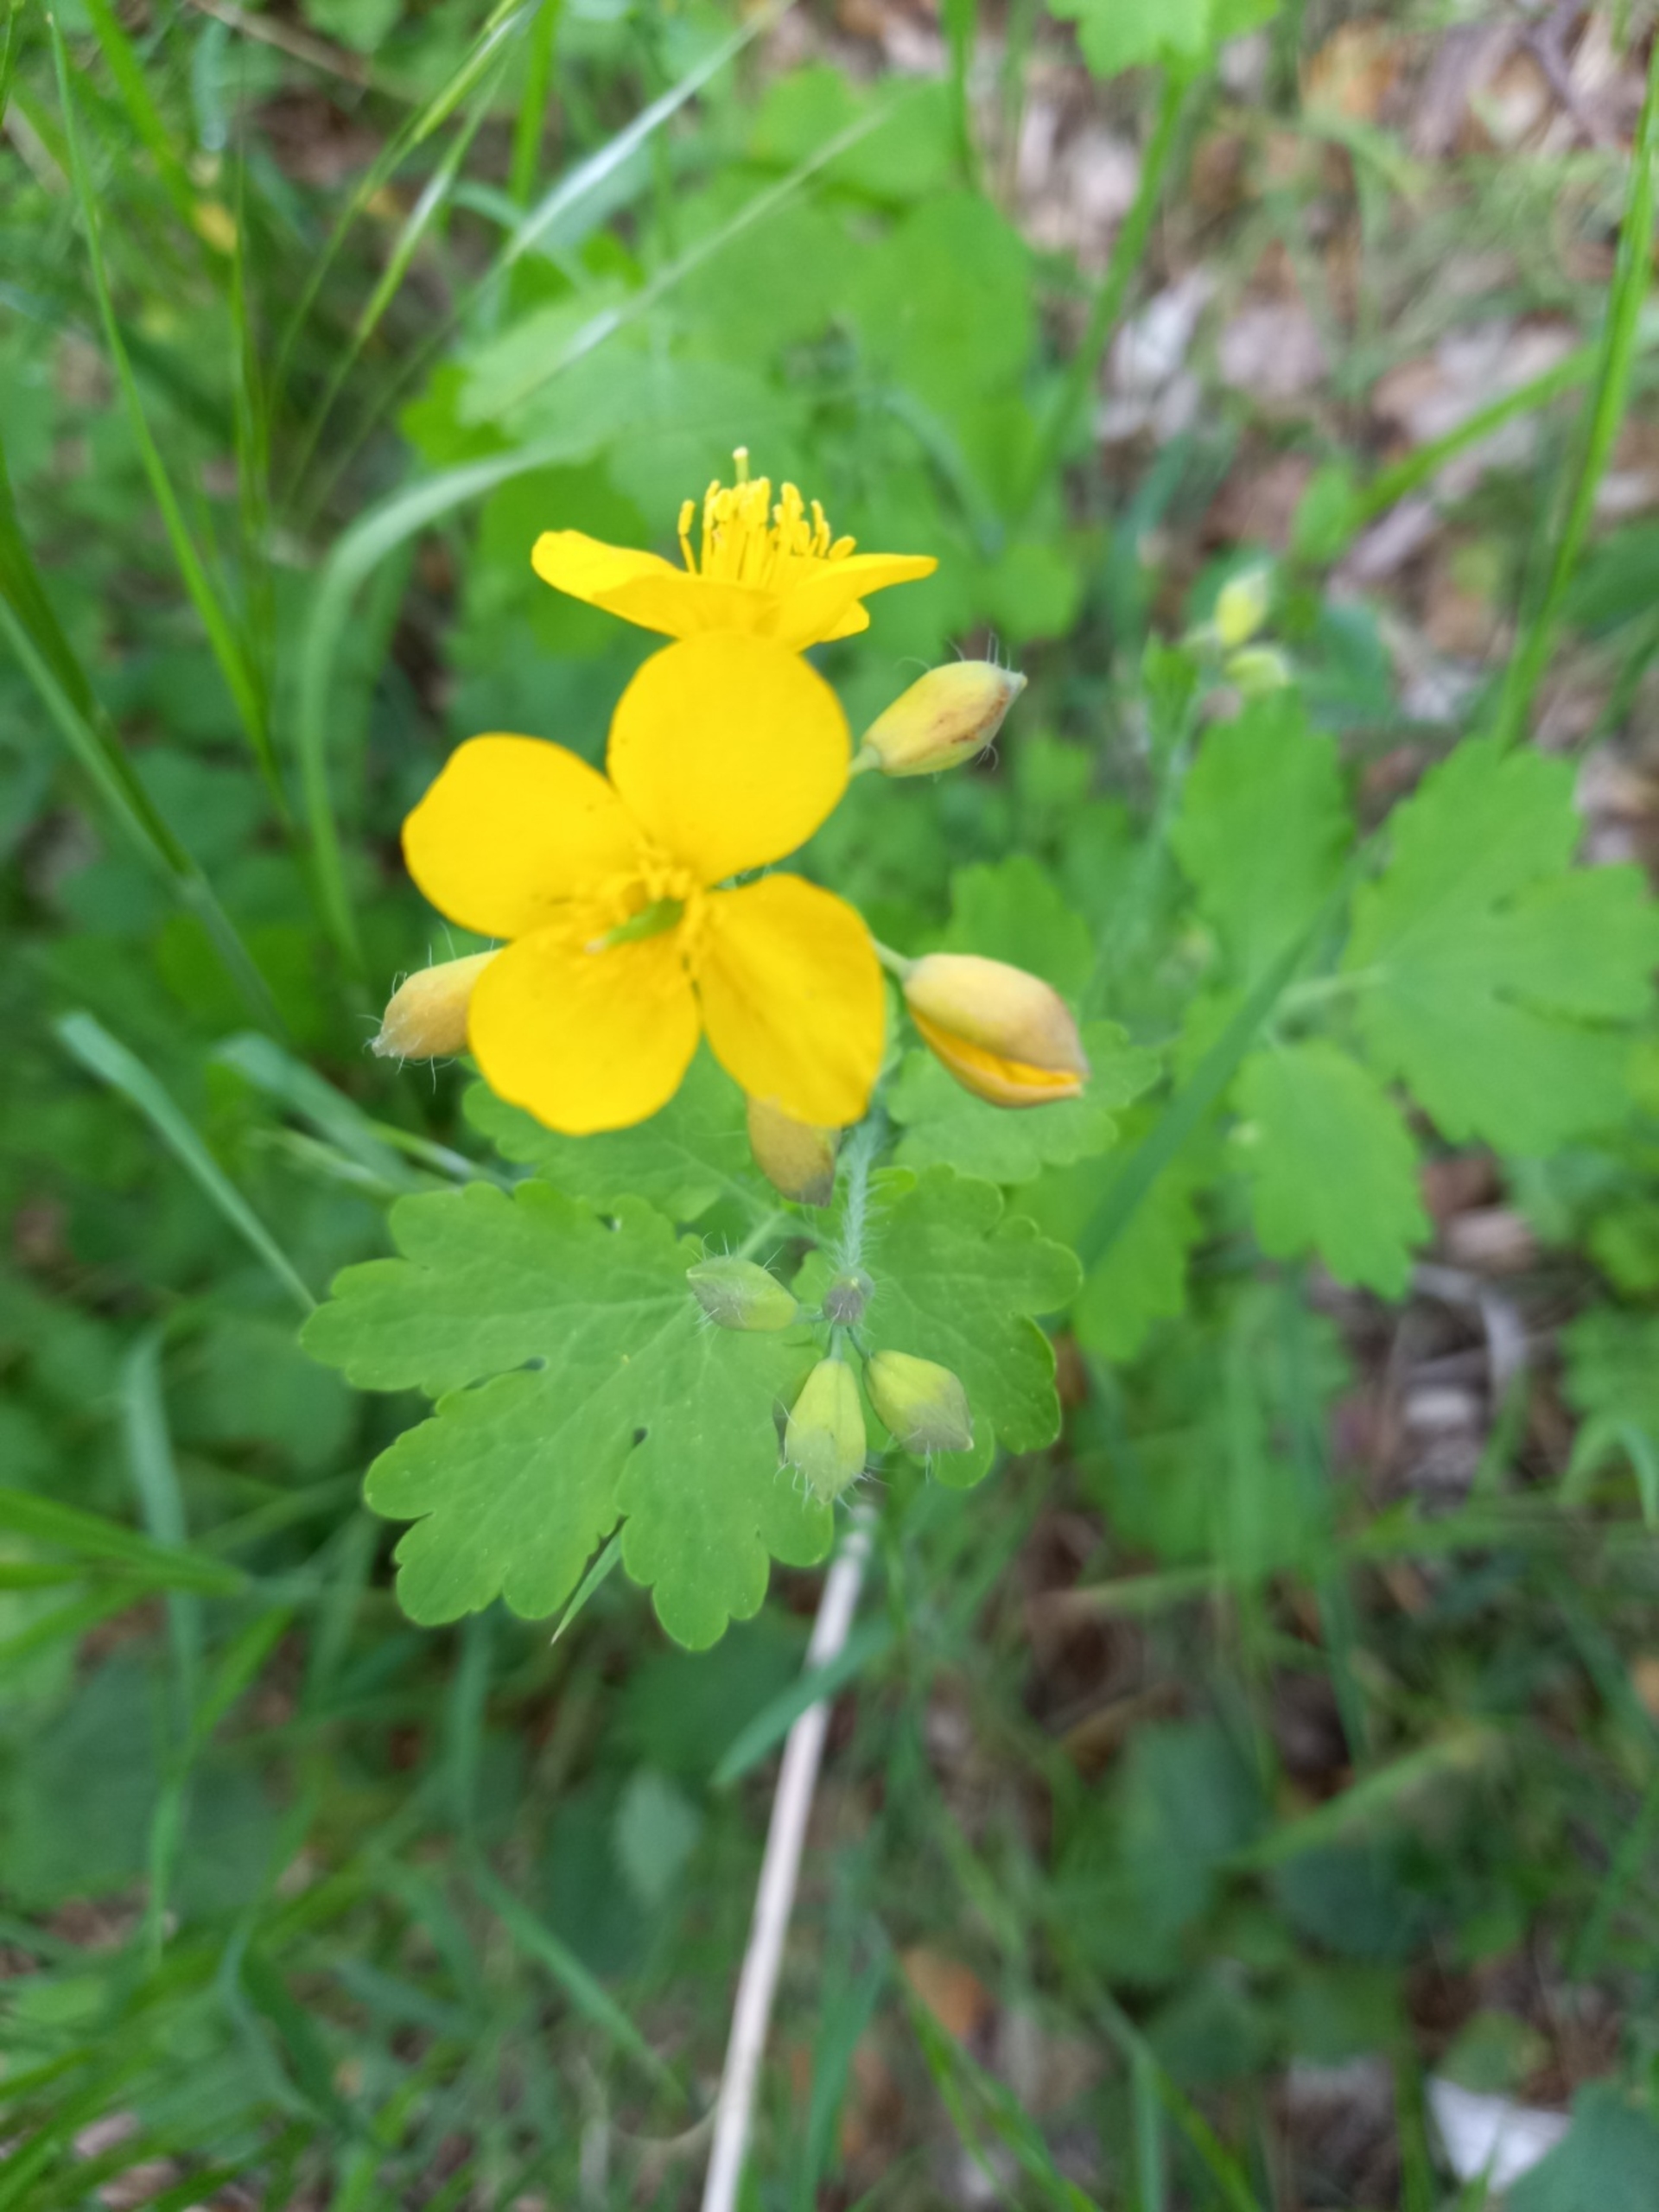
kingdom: Plantae
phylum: Tracheophyta
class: Magnoliopsida
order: Ranunculales
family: Papaveraceae
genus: Chelidonium
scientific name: Chelidonium majus
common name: Svaleurt
